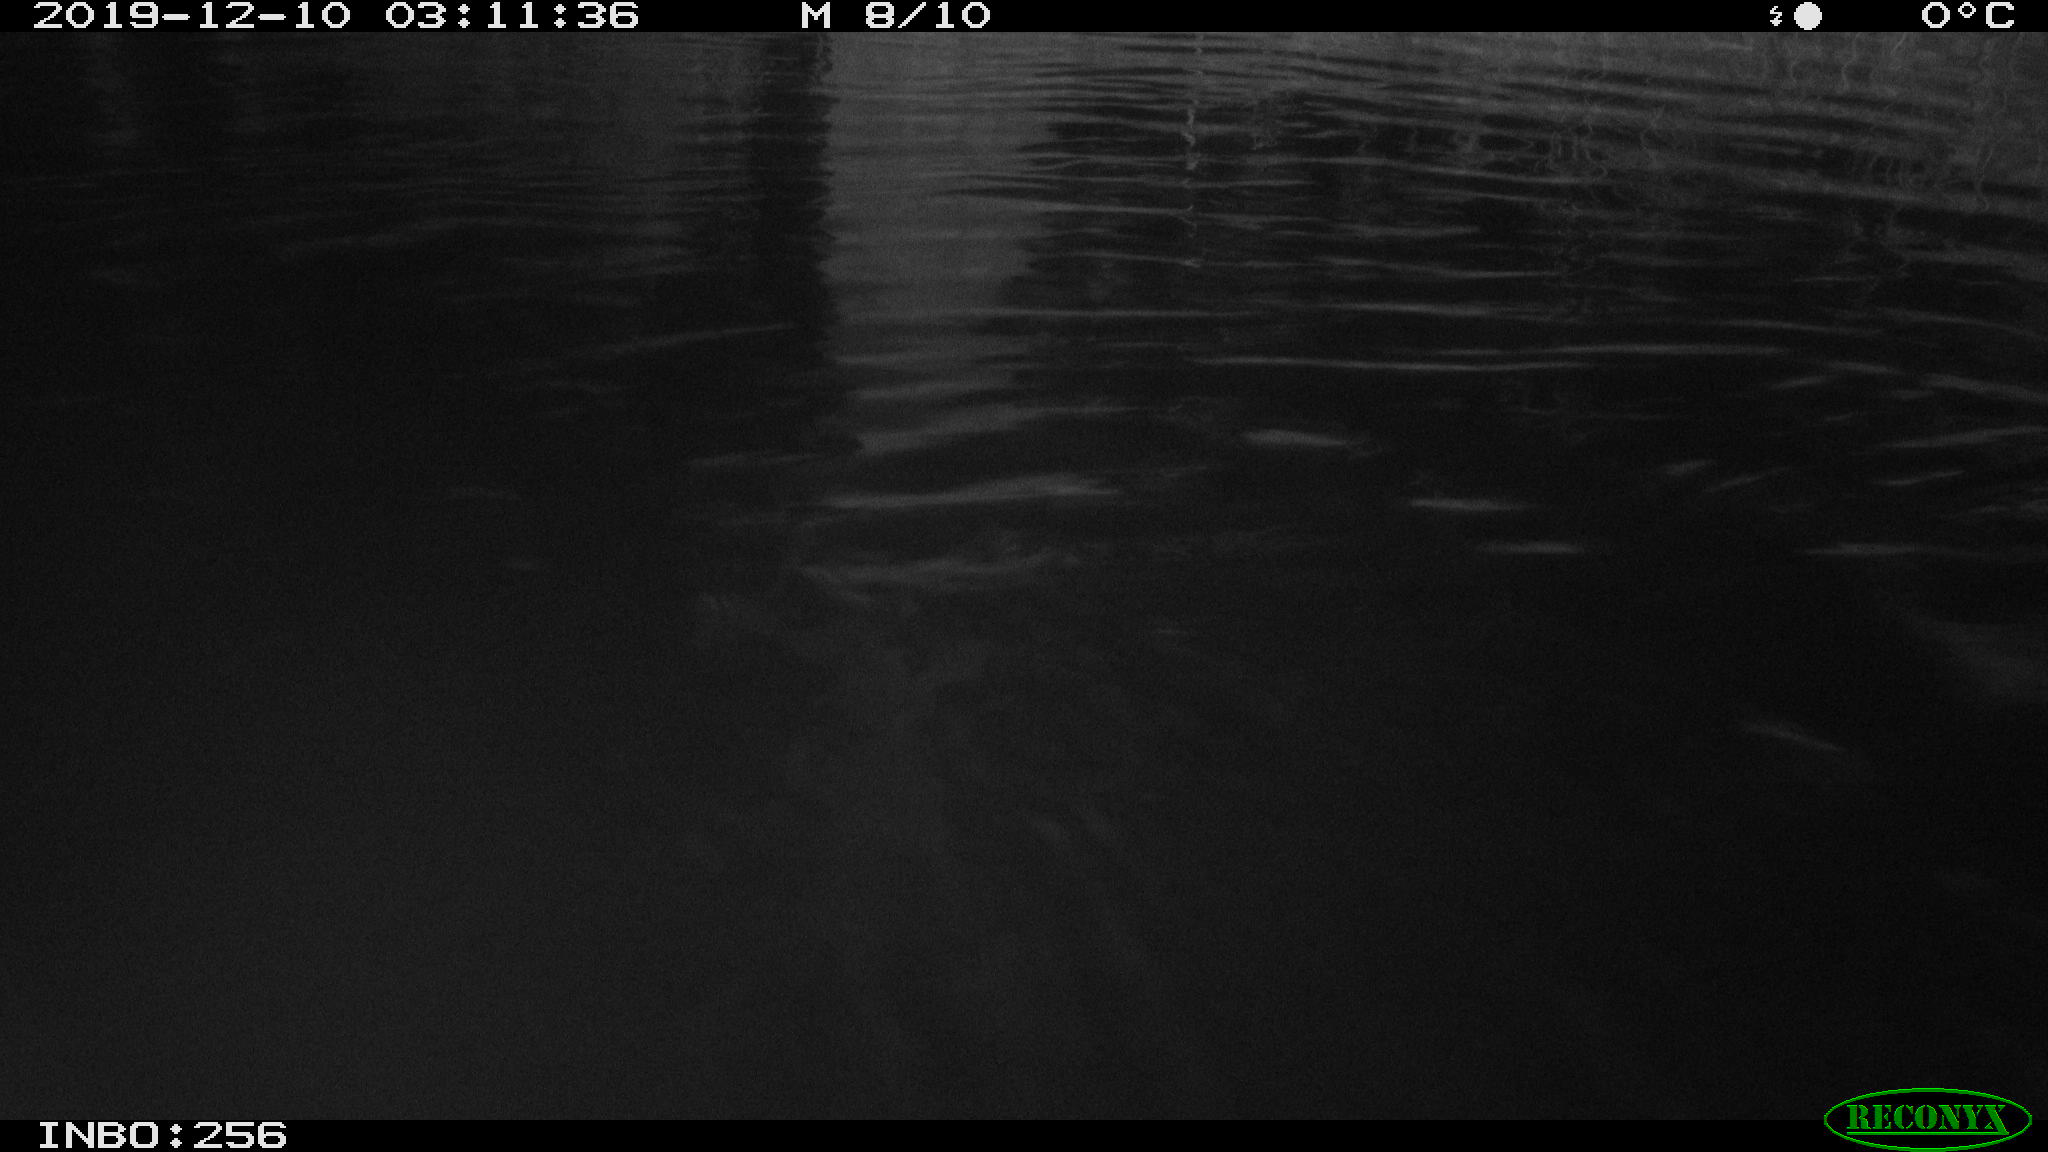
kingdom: Animalia
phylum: Chordata
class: Mammalia
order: Rodentia
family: Cricetidae
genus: Ondatra
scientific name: Ondatra zibethicus
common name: Muskrat
